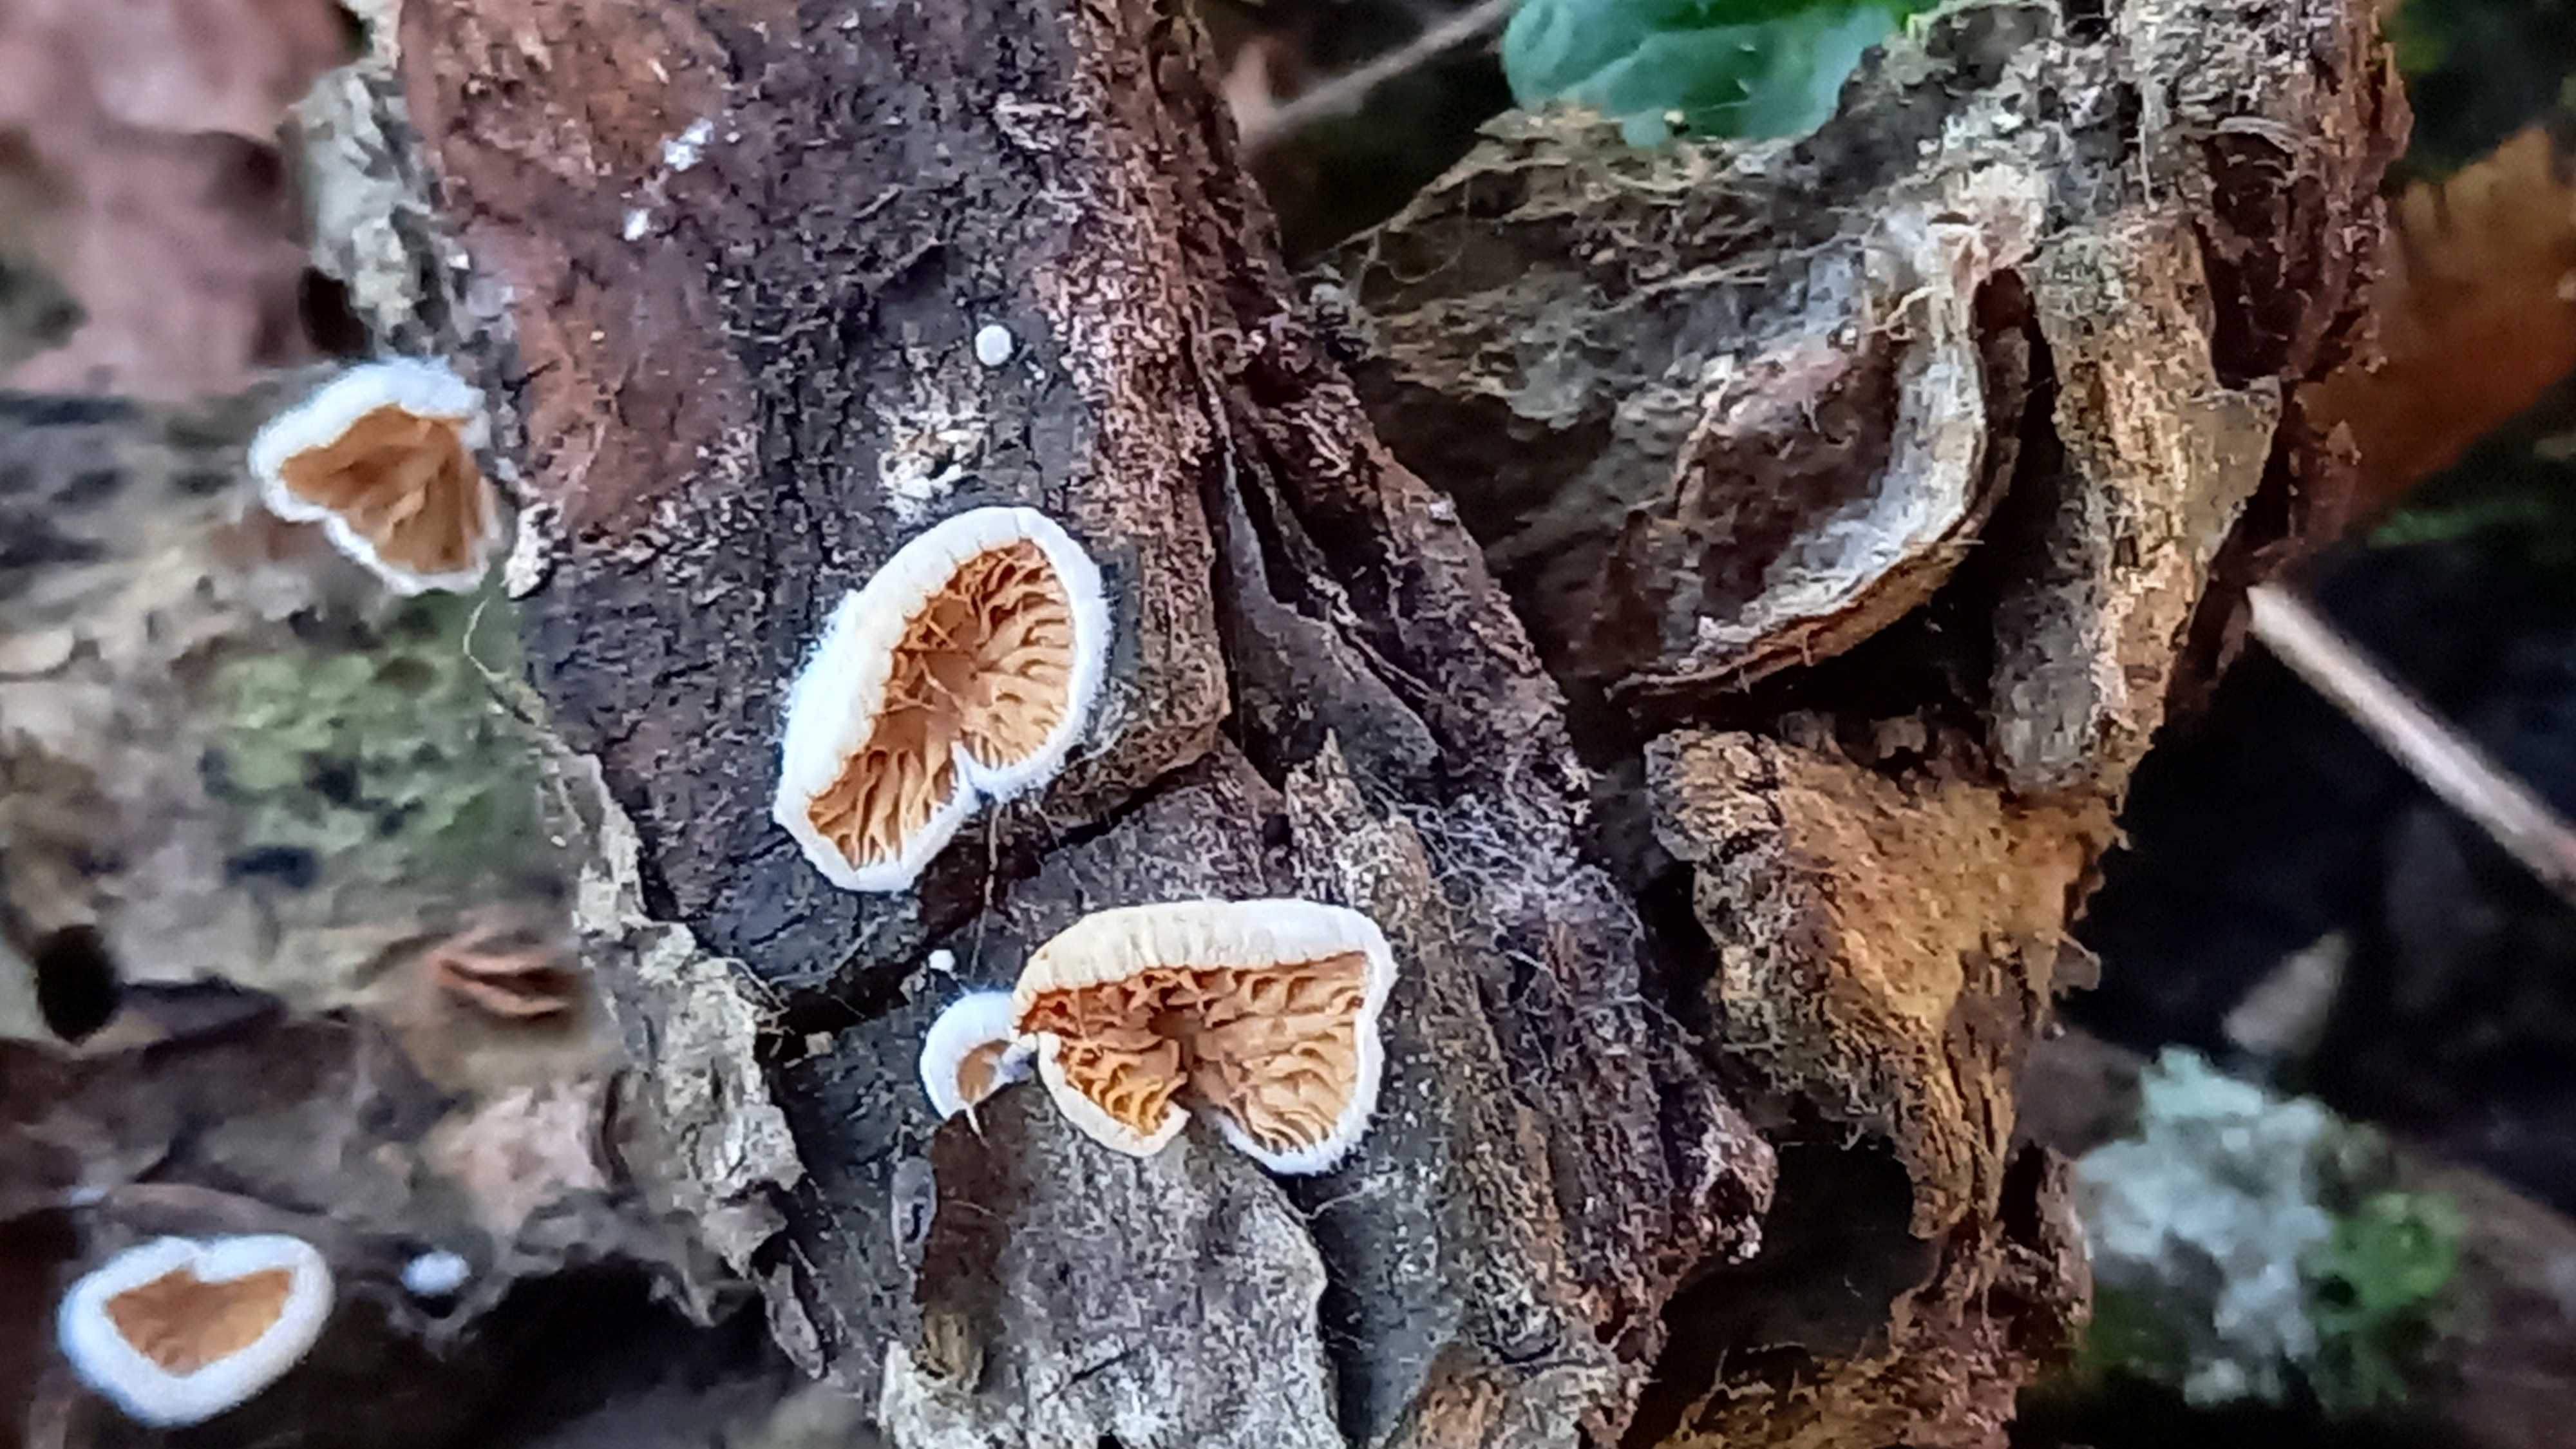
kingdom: Fungi
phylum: Basidiomycota
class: Agaricomycetes
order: Agaricales
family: Crepidotaceae
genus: Crepidotus
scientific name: Crepidotus
